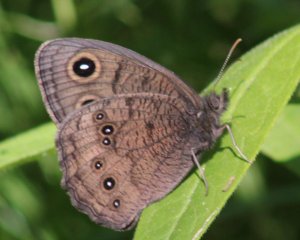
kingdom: Animalia
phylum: Arthropoda
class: Insecta
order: Lepidoptera
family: Nymphalidae
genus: Cercyonis
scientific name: Cercyonis pegala
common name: Common Wood-Nymph
